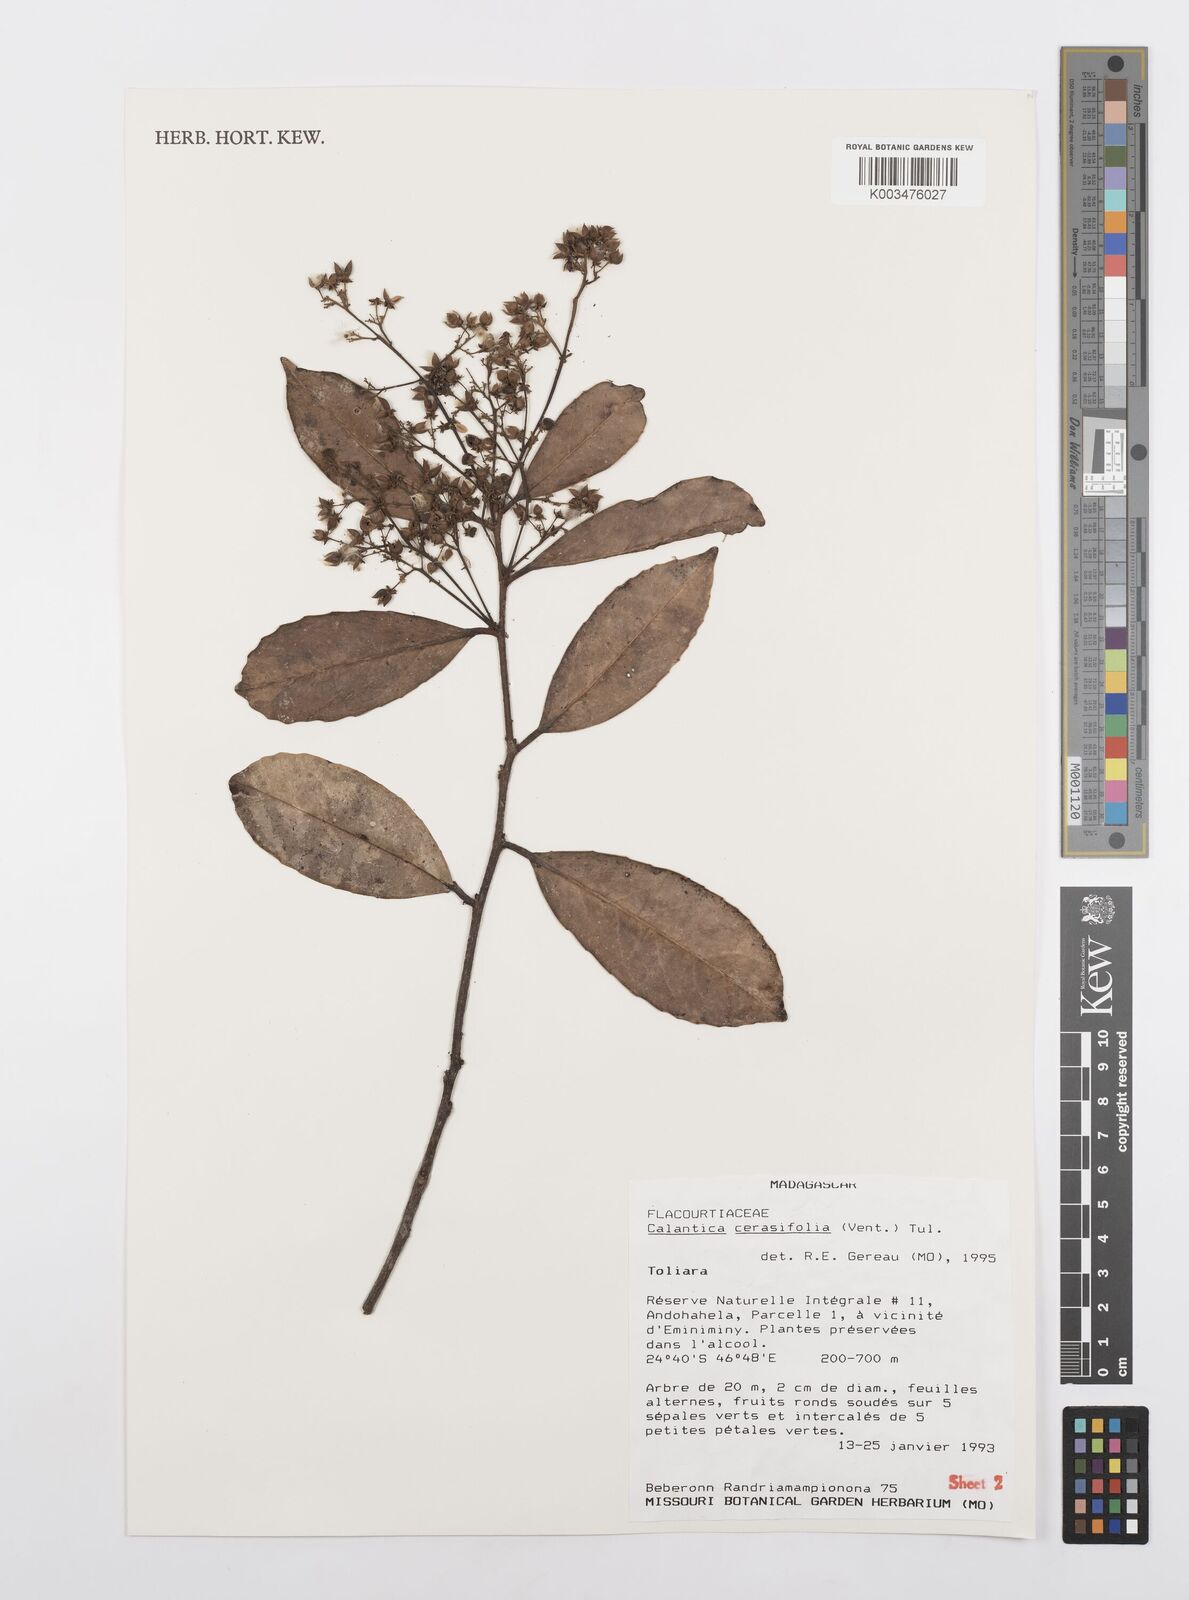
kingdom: Plantae
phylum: Tracheophyta
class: Magnoliopsida
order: Malpighiales
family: Salicaceae
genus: Calantica
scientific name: Calantica cerasifolia
